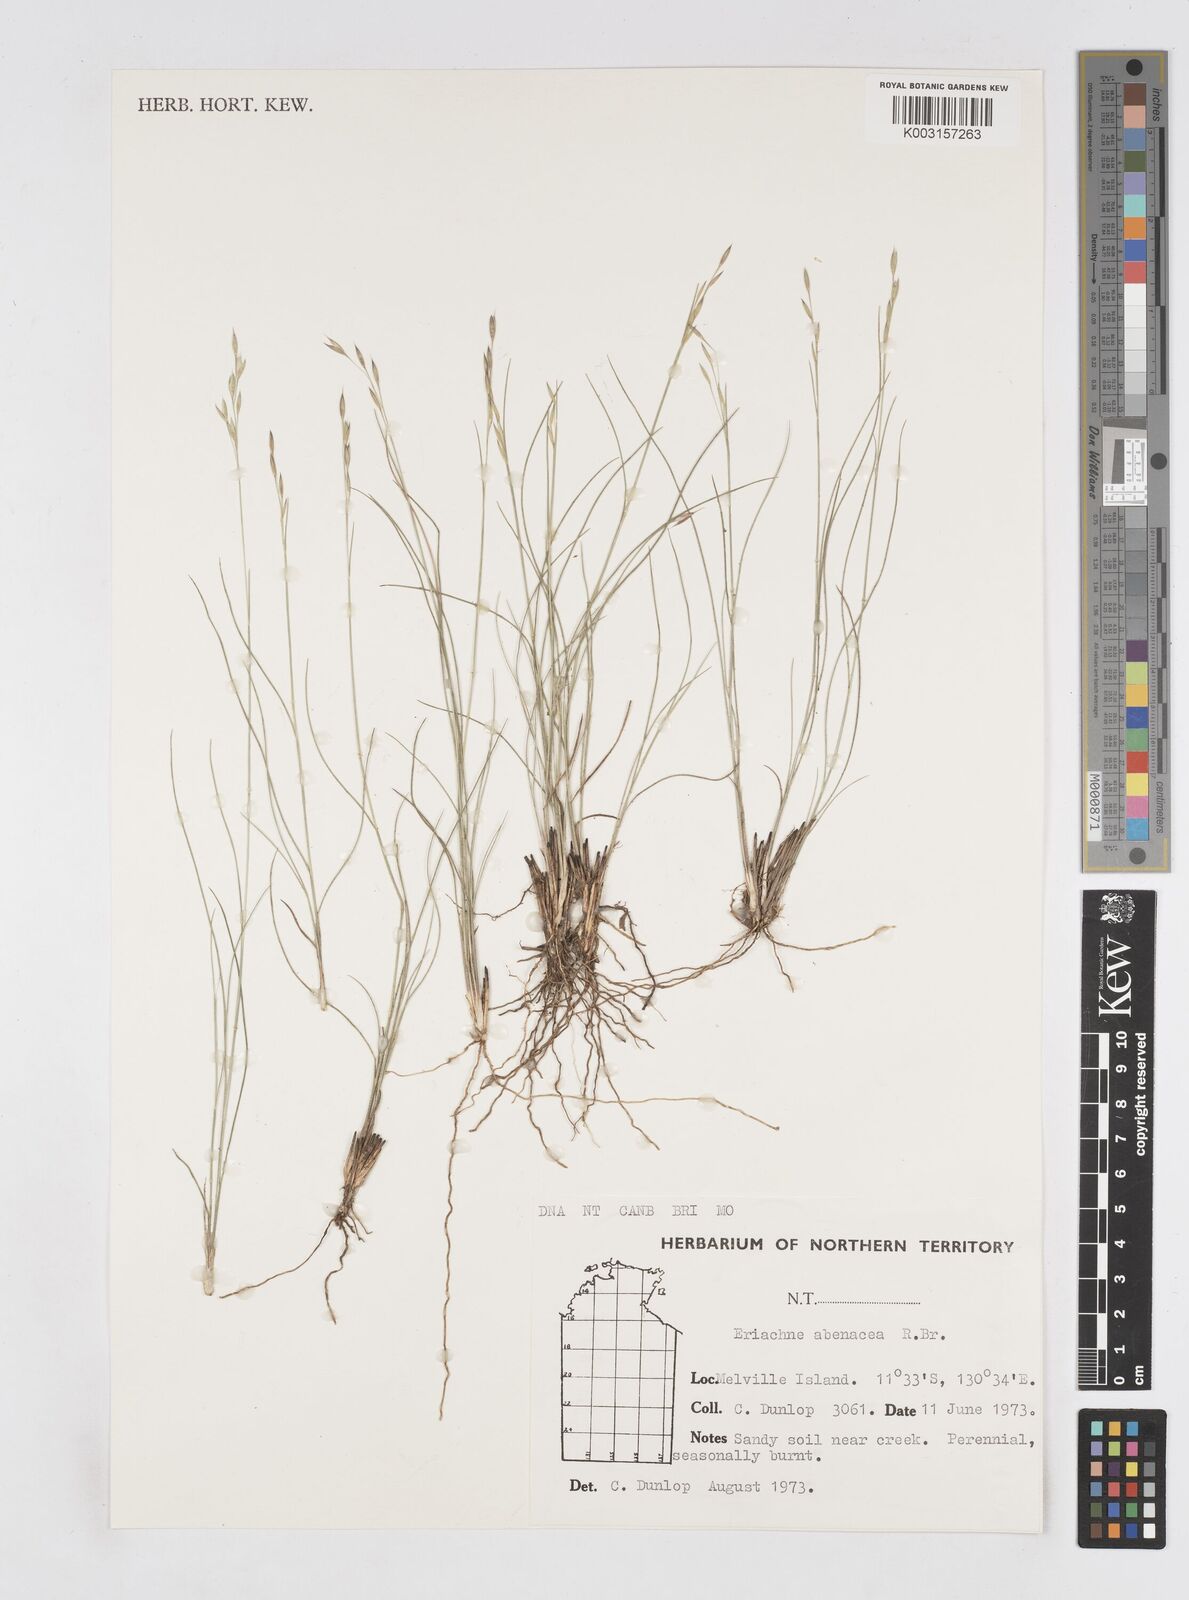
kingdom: Plantae
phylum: Tracheophyta
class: Liliopsida
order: Poales
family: Poaceae
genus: Eriachne
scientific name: Eriachne avenacea
